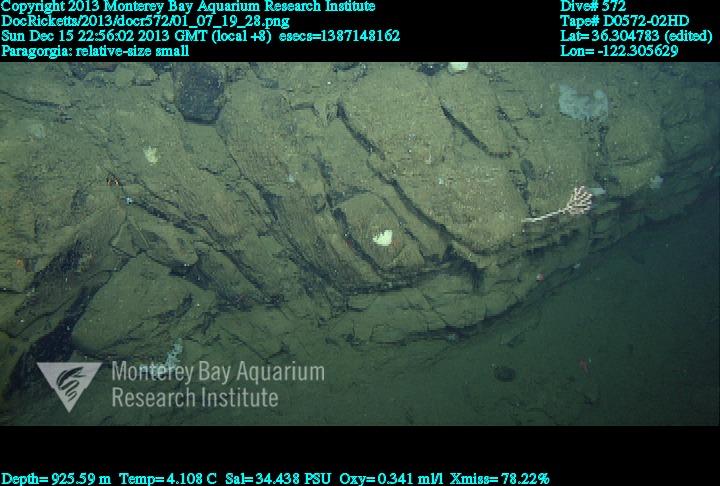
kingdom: Animalia
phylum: Cnidaria
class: Anthozoa
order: Scleralcyonacea
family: Coralliidae
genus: Sibogagorgia
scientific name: Sibogagorgia cauliflora
